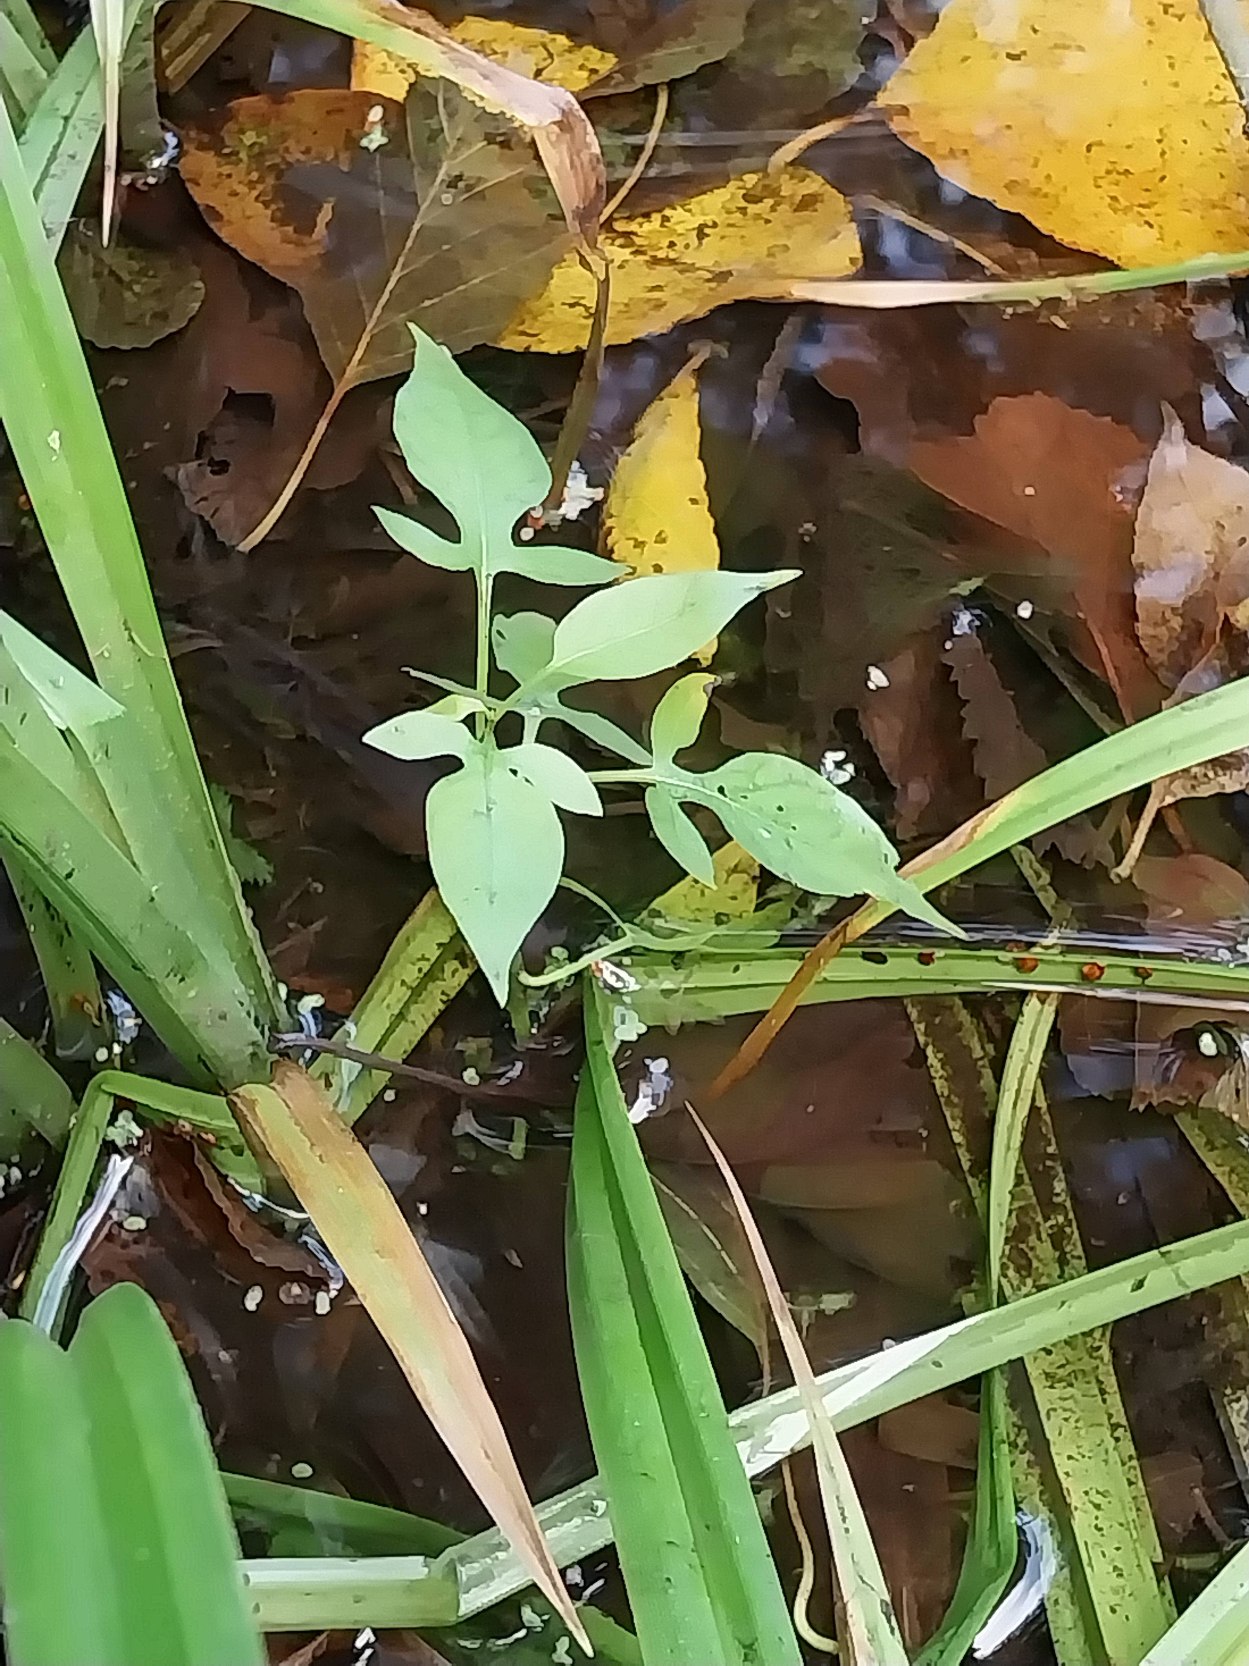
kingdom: Plantae
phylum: Tracheophyta
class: Magnoliopsida
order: Solanales
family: Solanaceae
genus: Solanum
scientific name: Solanum dulcamara
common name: Bittersød natskygge
